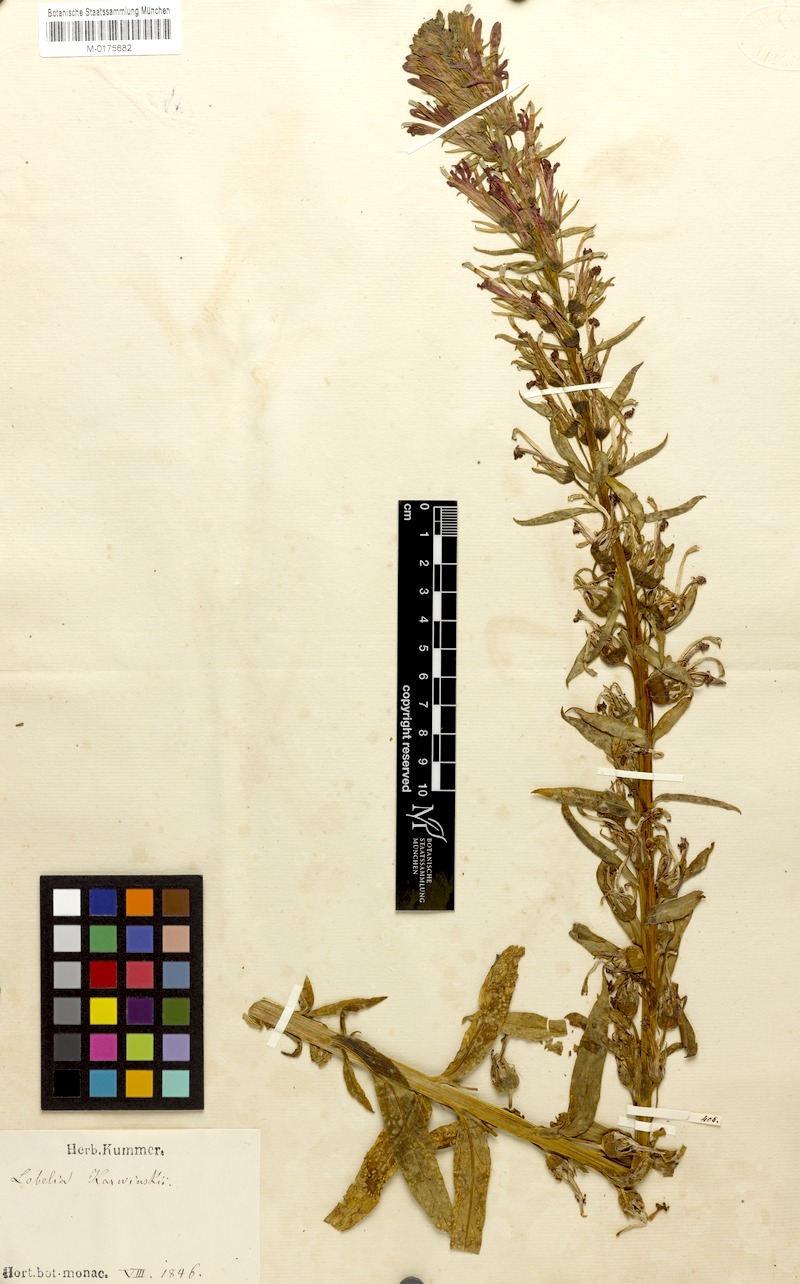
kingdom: Plantae
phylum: Tracheophyta
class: Magnoliopsida
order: Asterales
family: Campanulaceae
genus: Lobelia
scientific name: Lobelia cardinalis
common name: Cardinal flower
